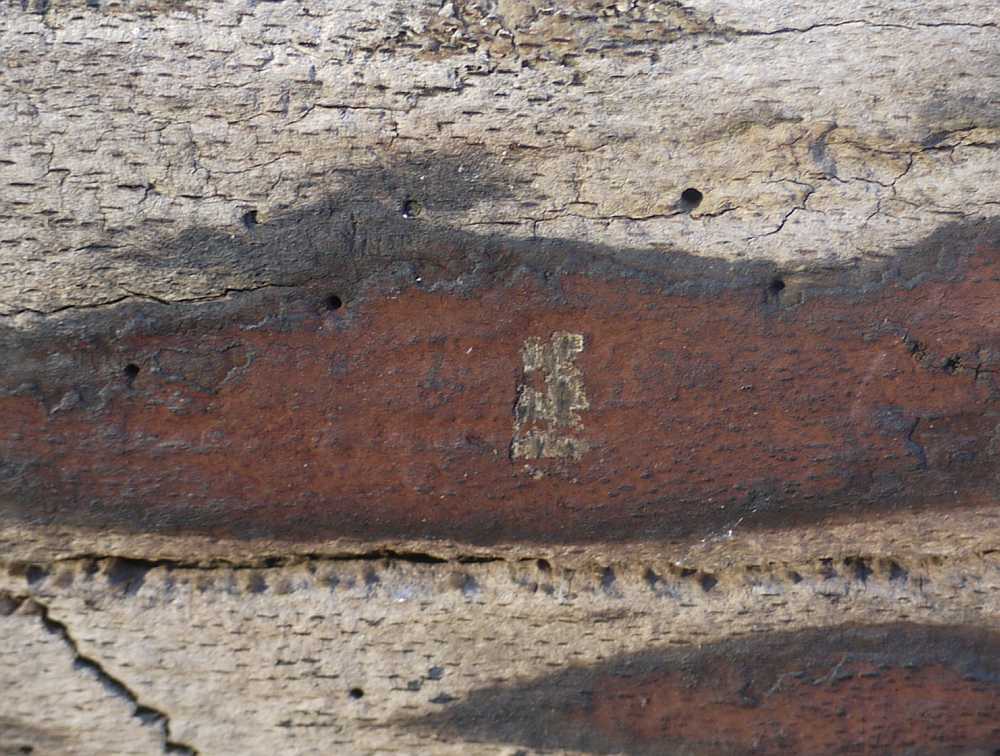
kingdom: Fungi
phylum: Ascomycota
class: Sordariomycetes
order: Xylariales
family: Hypoxylaceae
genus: Hypoxylon
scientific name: Hypoxylon macrocarpum
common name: skorpe-kulbær
